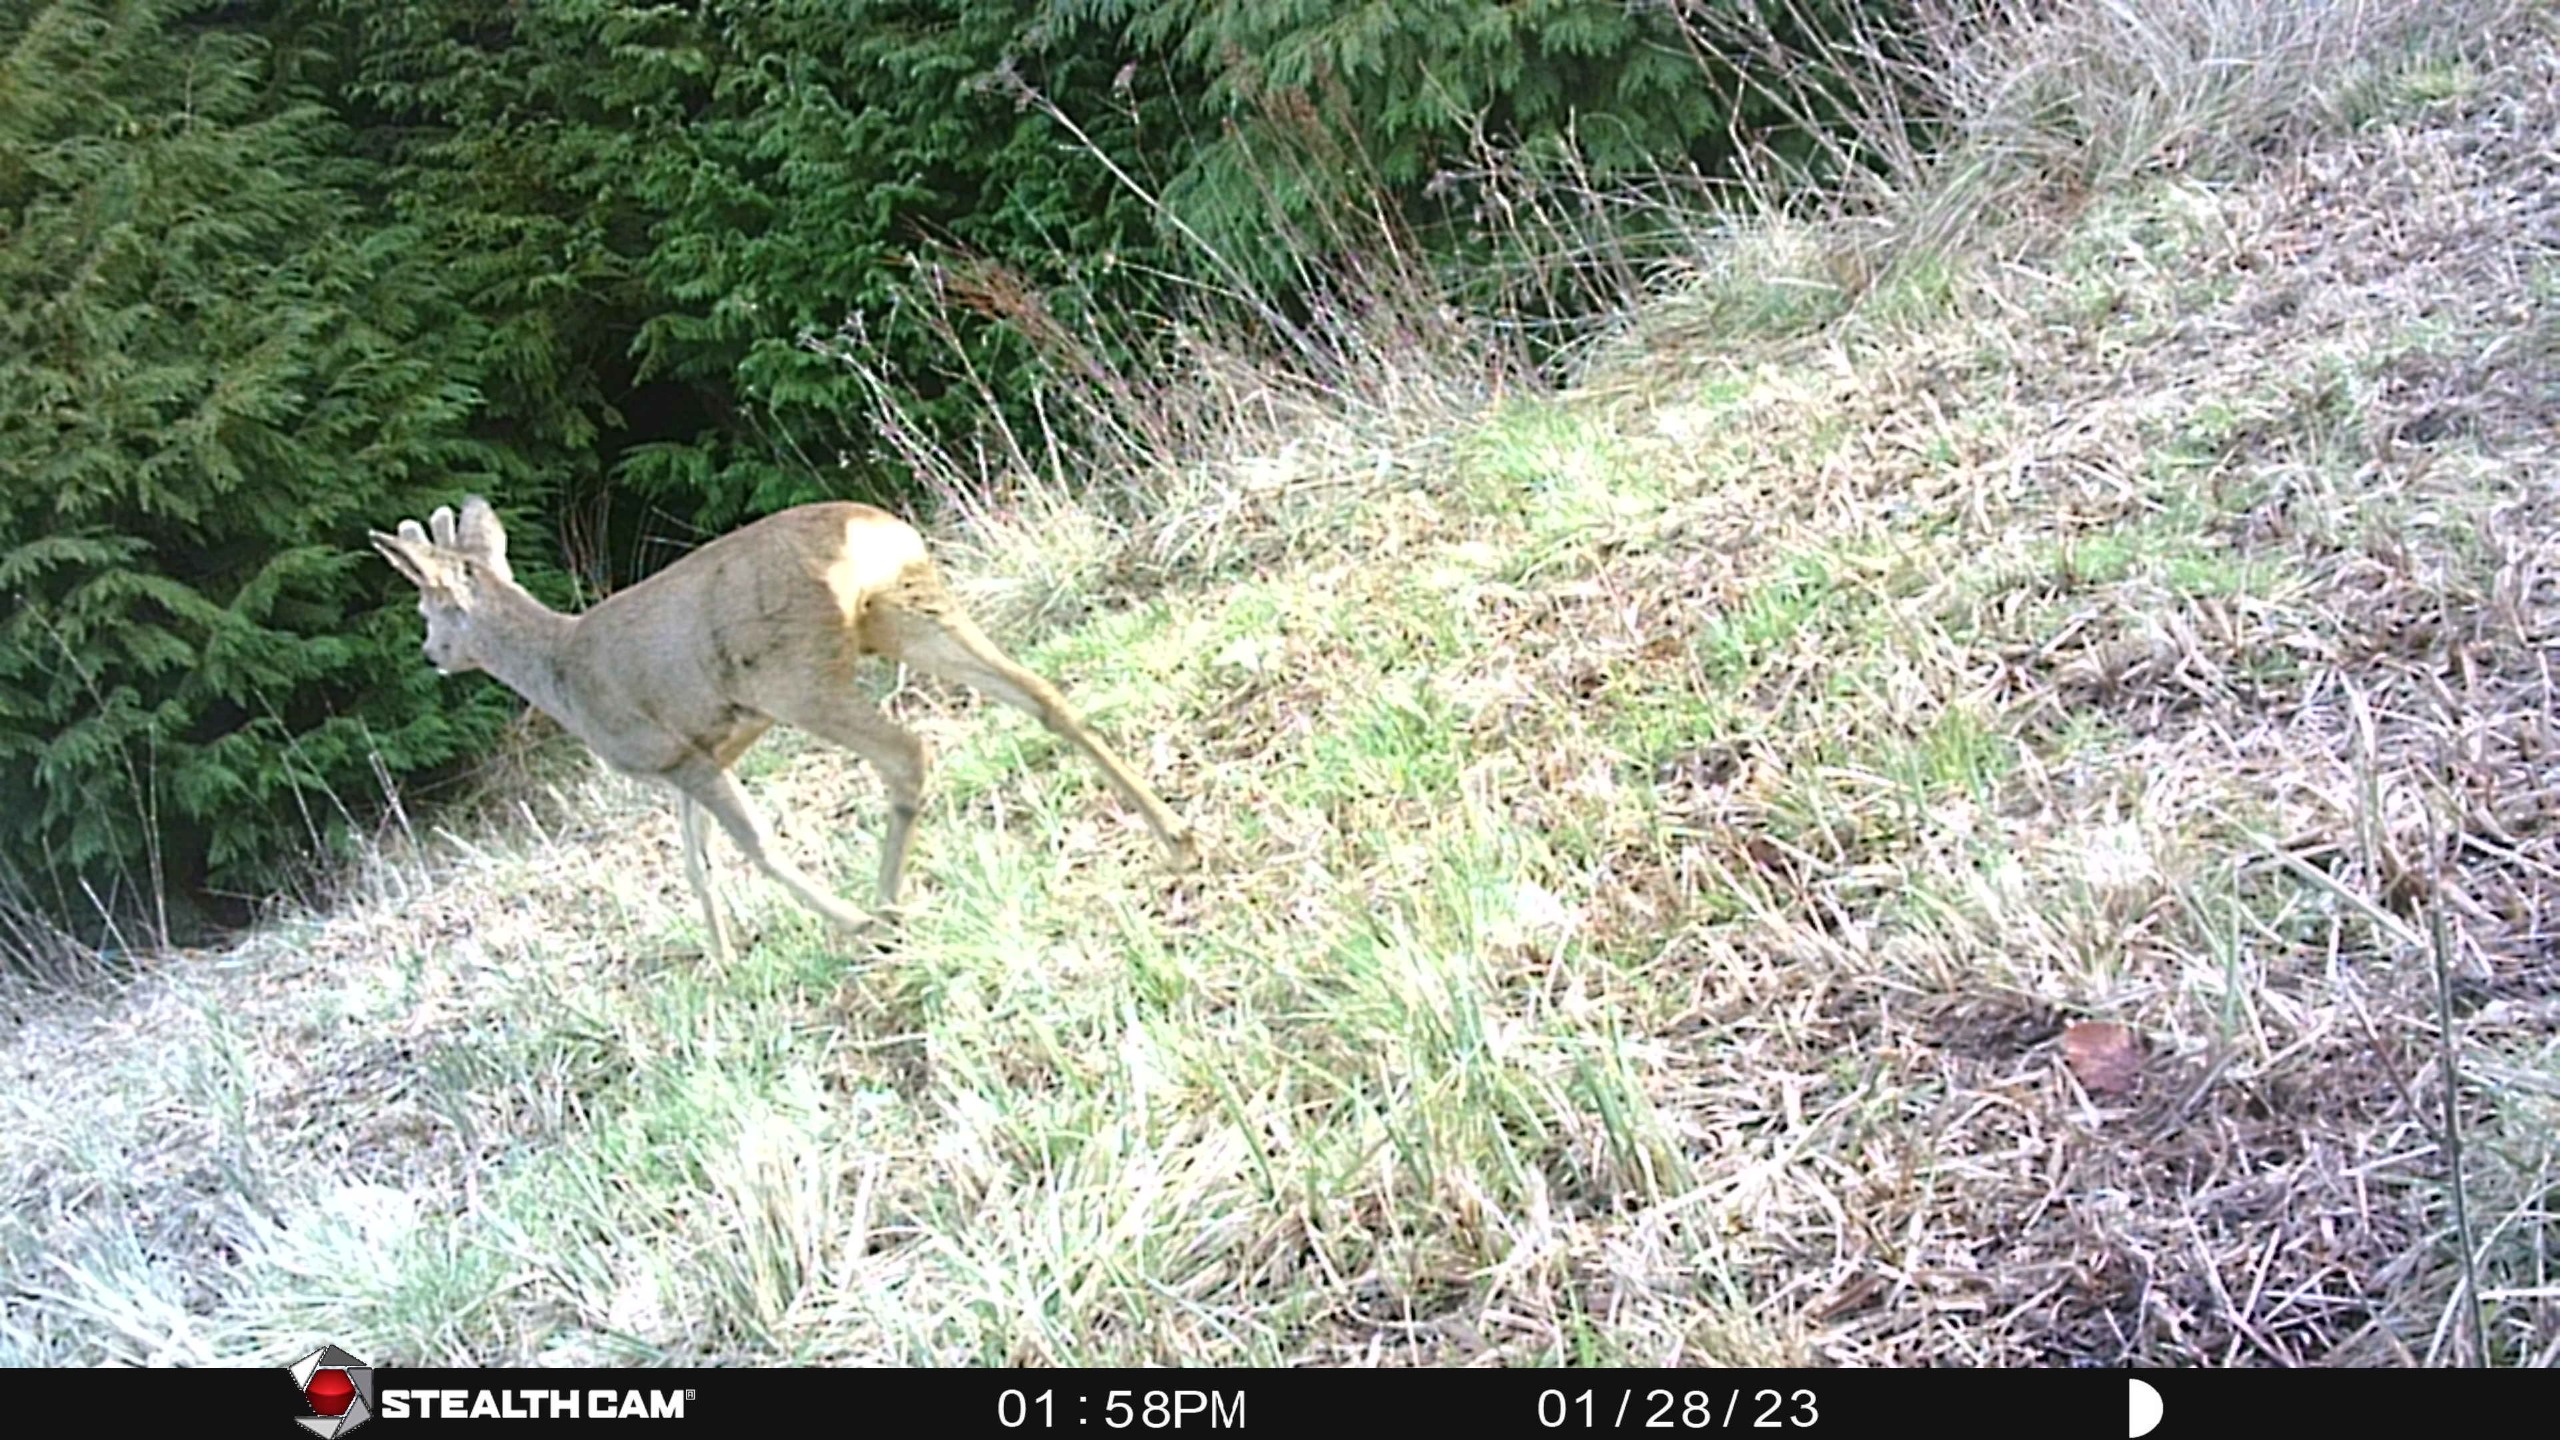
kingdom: Animalia
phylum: Chordata
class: Mammalia
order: Artiodactyla
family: Cervidae
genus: Capreolus
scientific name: Capreolus capreolus
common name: Rådyr
